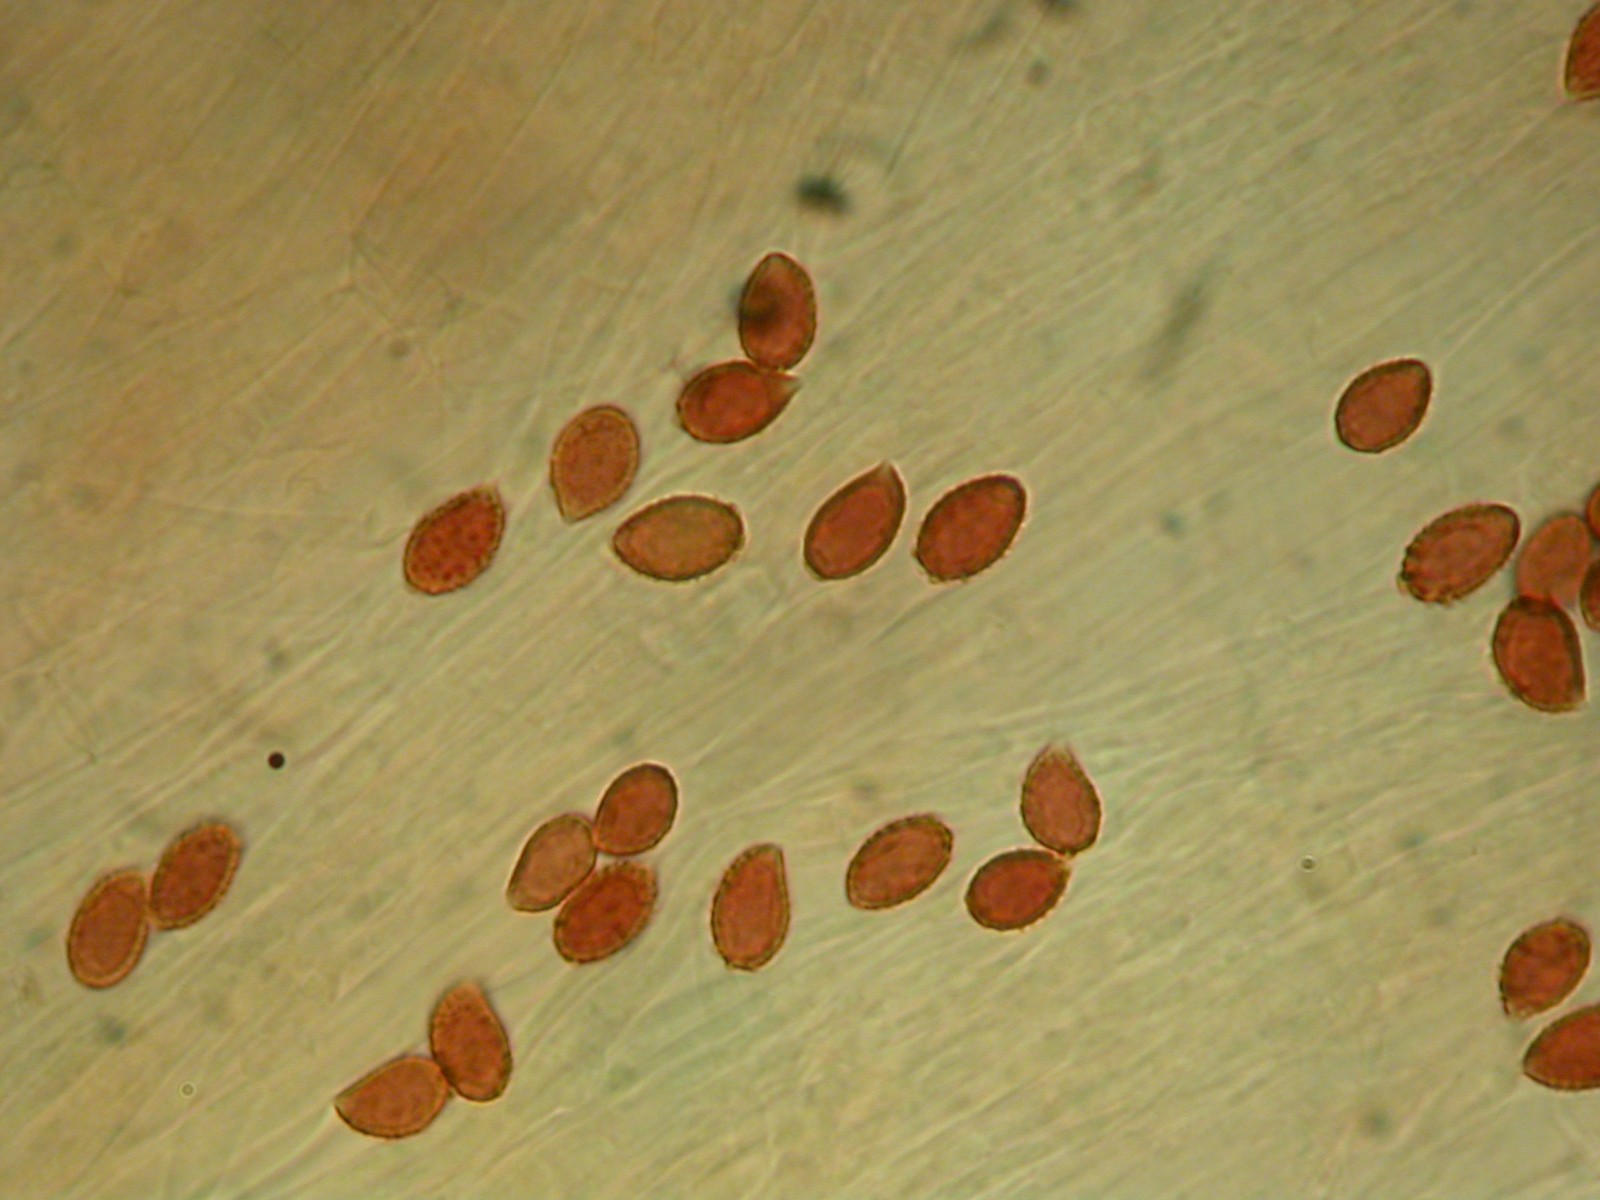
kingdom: Fungi
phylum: Basidiomycota
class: Agaricomycetes
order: Agaricales
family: Cortinariaceae
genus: Cortinarius
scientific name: Cortinarius campester
